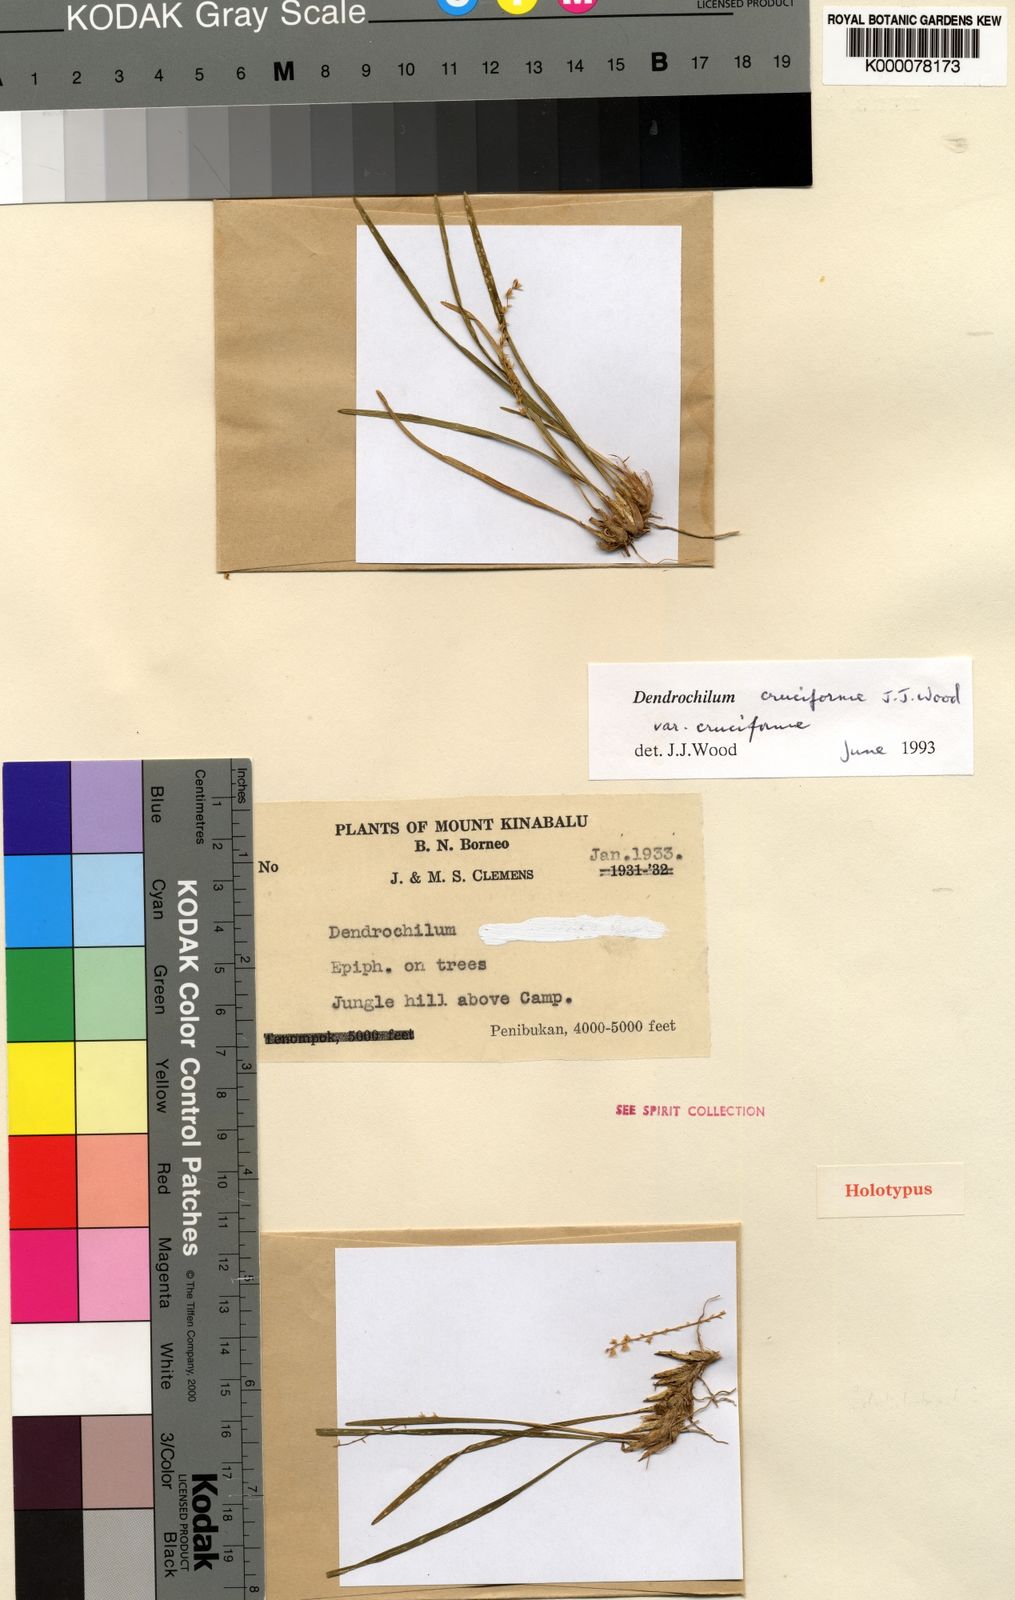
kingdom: Plantae
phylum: Tracheophyta
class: Liliopsida
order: Asparagales
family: Orchidaceae
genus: Coelogyne
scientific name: Coelogyne cruciformis
